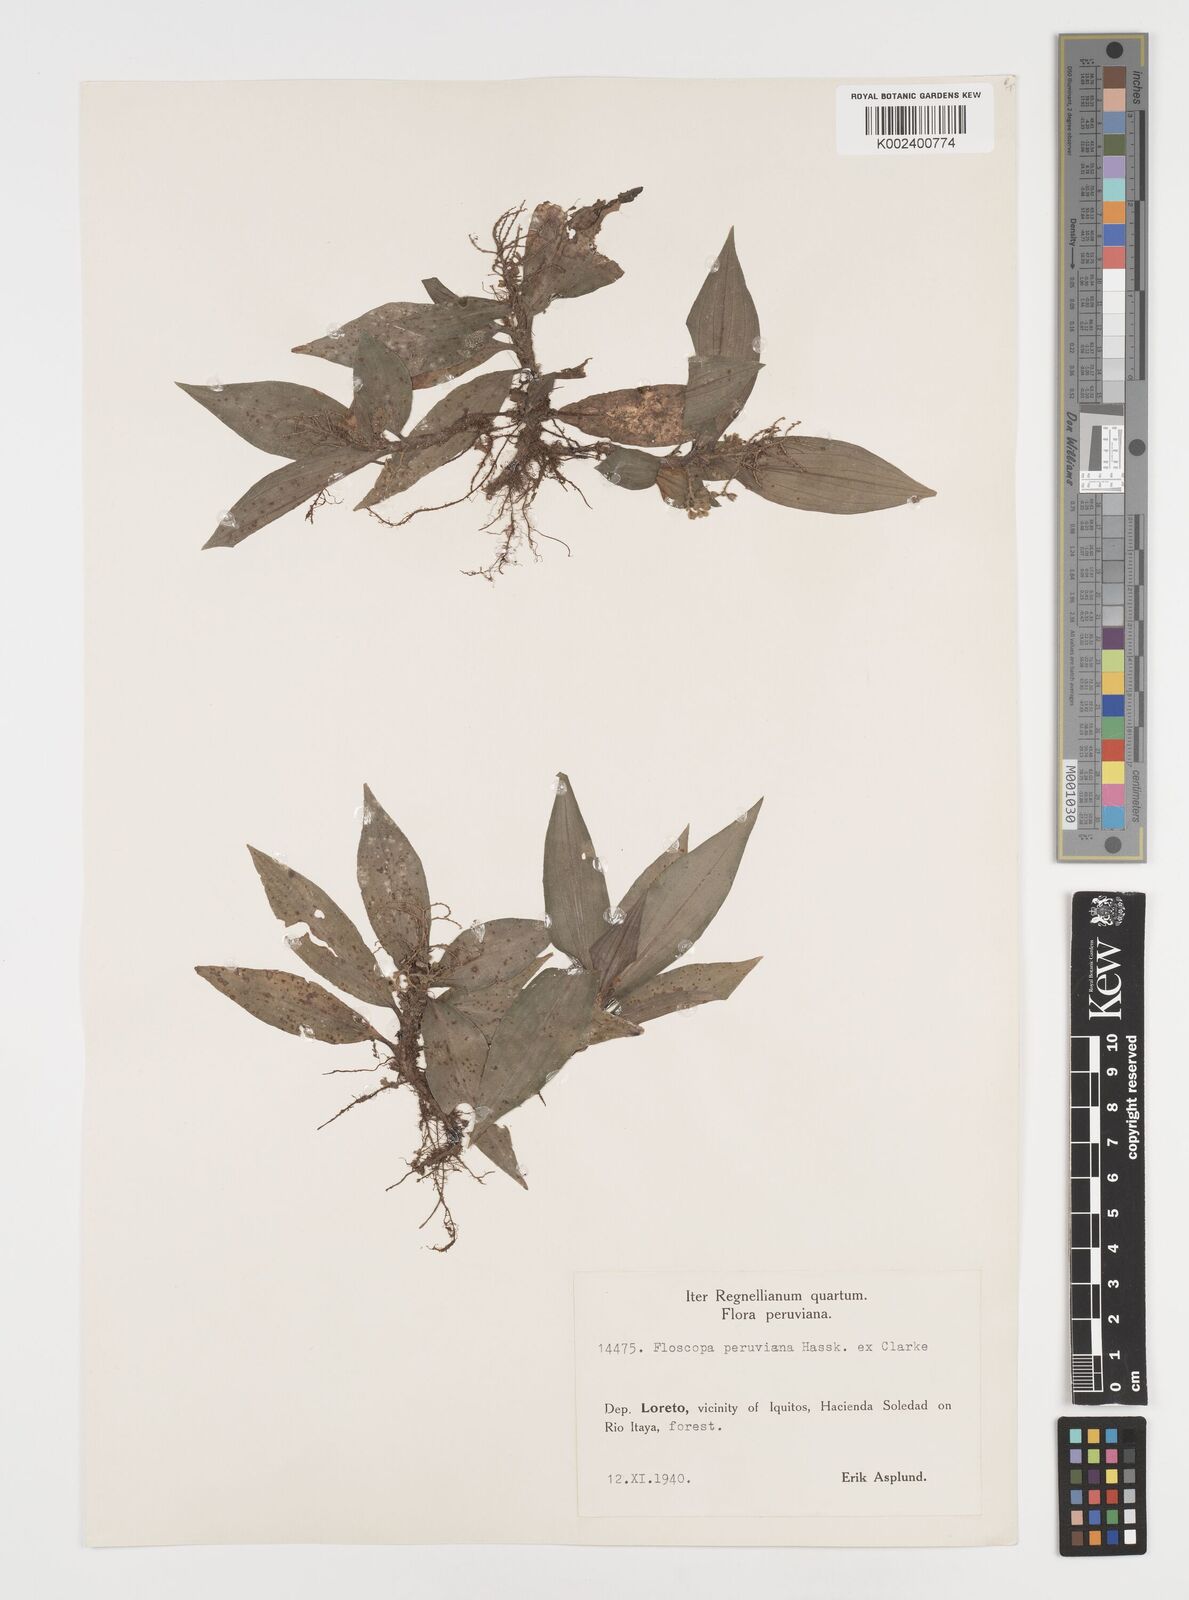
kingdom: Plantae
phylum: Tracheophyta
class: Liliopsida
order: Commelinales
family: Commelinaceae
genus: Floscopa
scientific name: Floscopa peruviana
